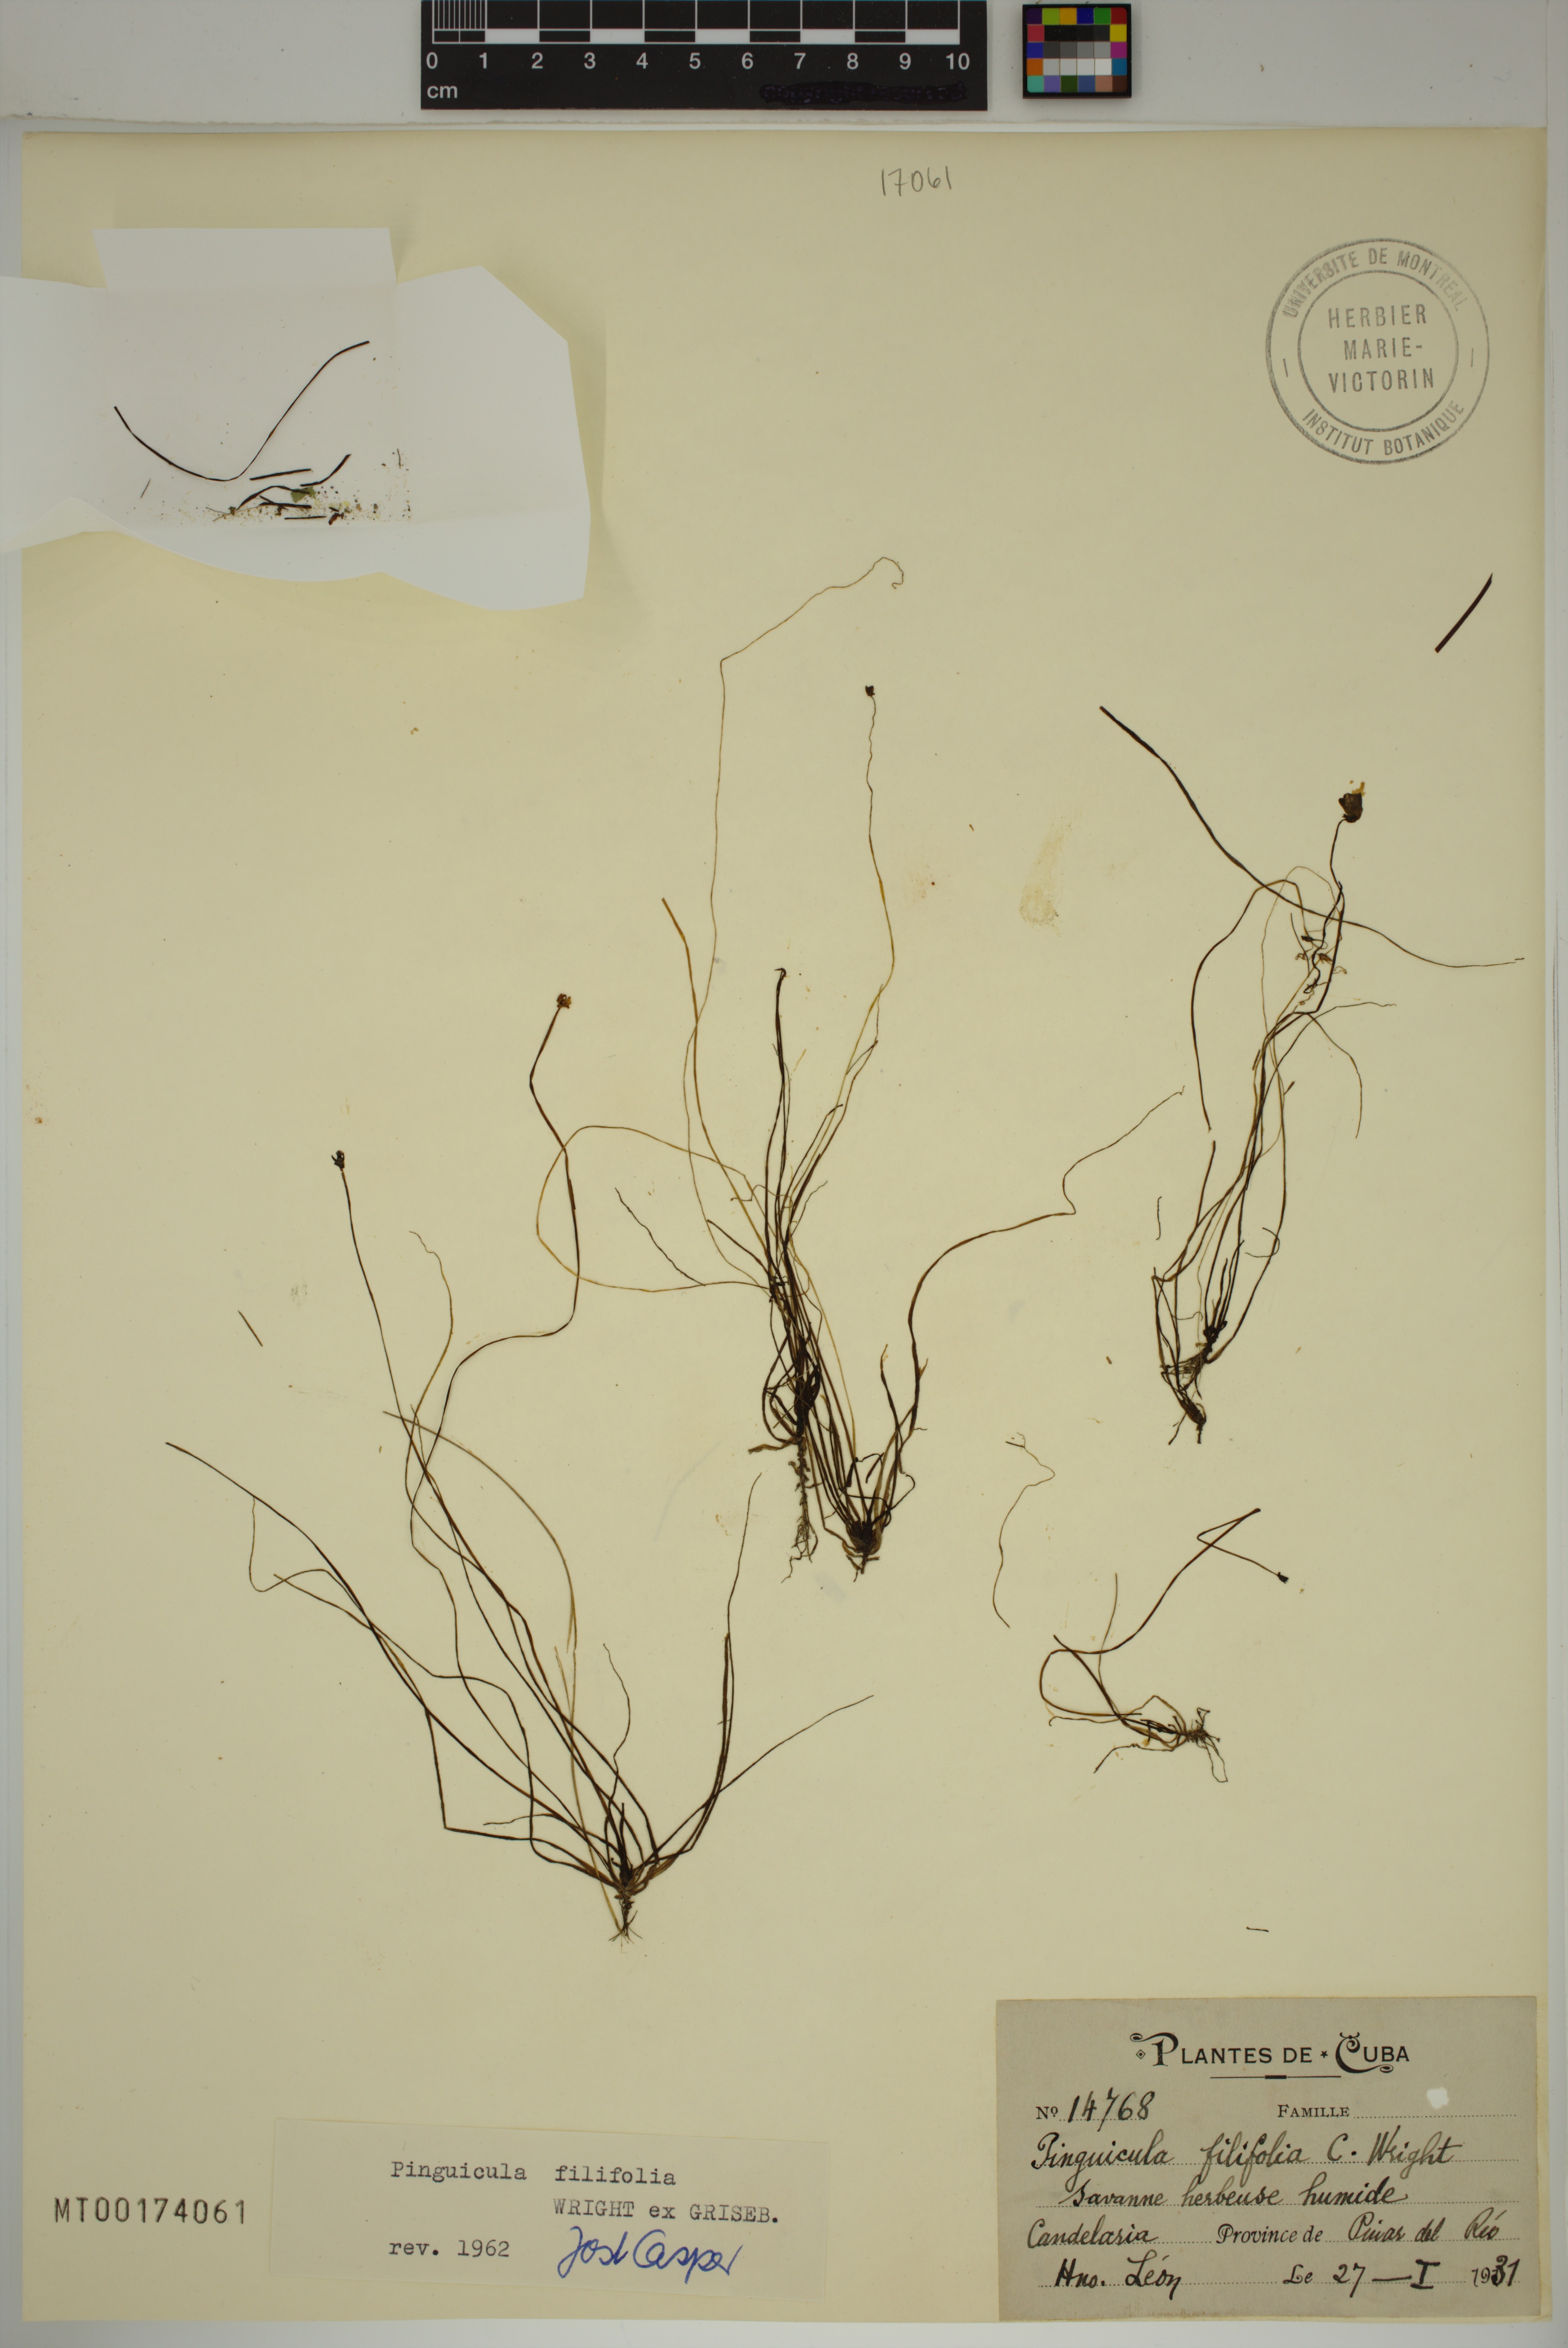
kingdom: Plantae
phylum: Tracheophyta
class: Magnoliopsida
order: Lamiales
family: Lentibulariaceae
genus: Pinguicula
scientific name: Pinguicula filifolia
